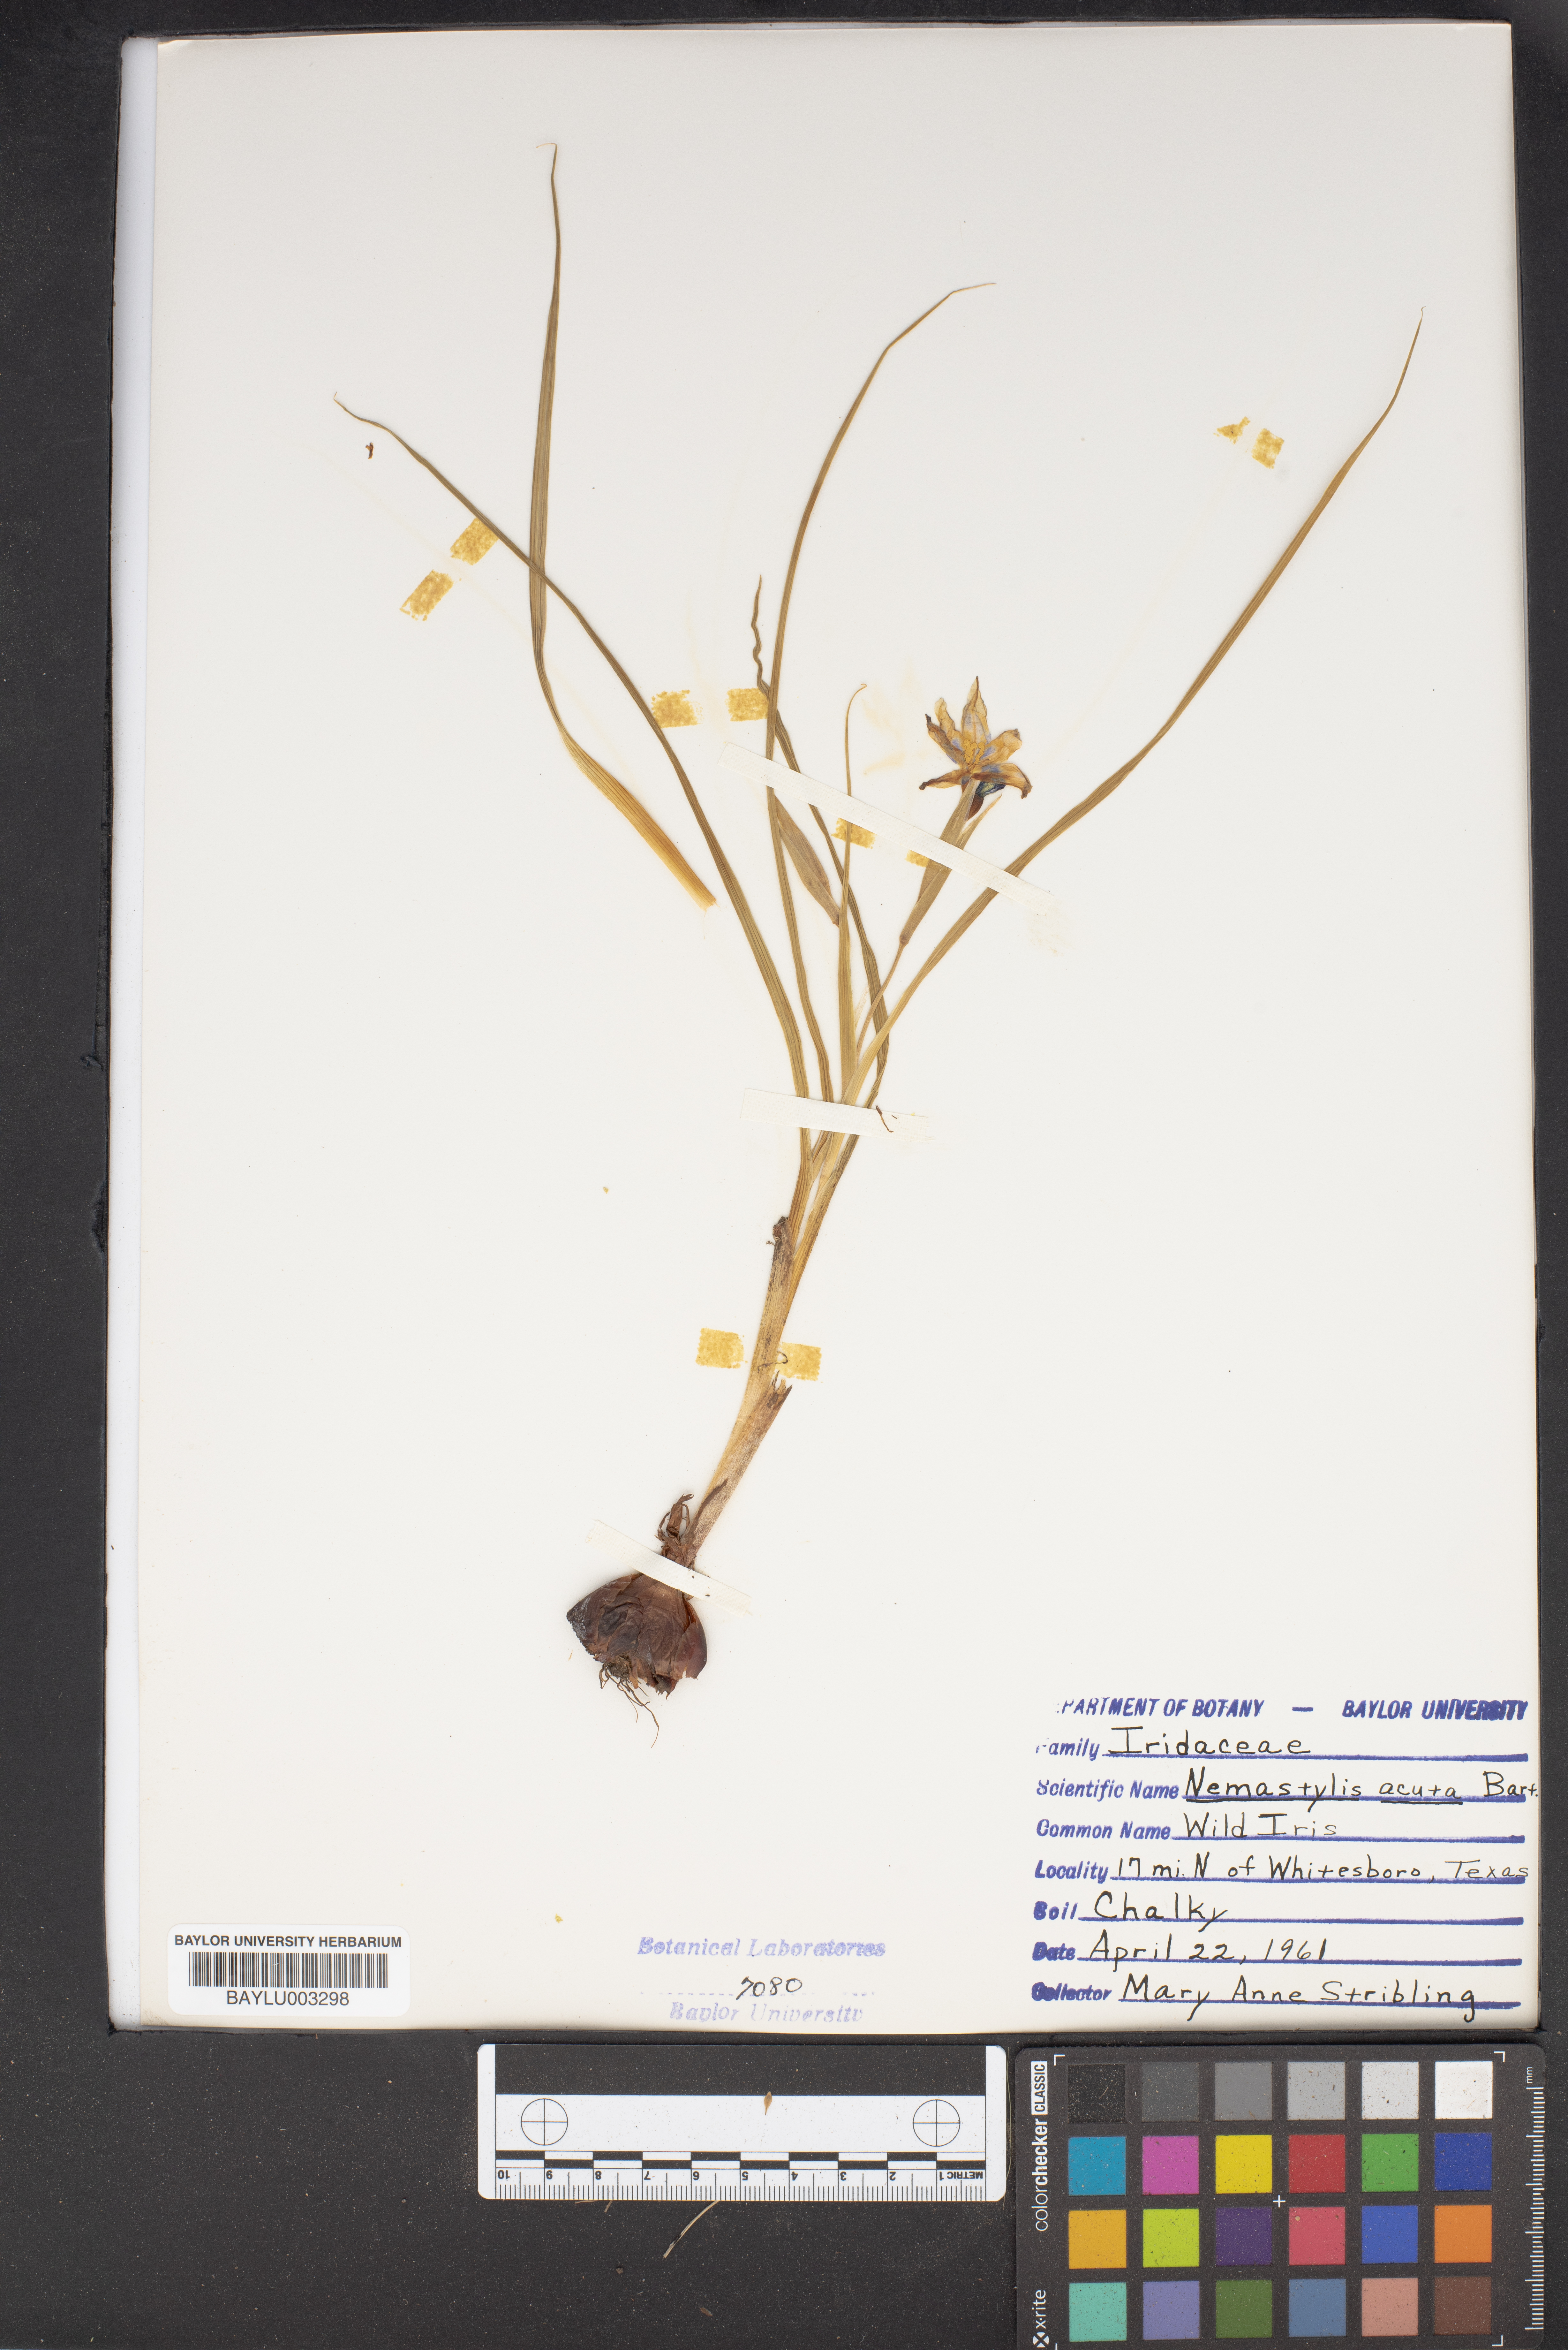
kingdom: Plantae
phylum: Tracheophyta
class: Liliopsida
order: Asparagales
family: Iridaceae
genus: Nemastylis
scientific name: Nemastylis geminiflora
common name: Prairie celestial
